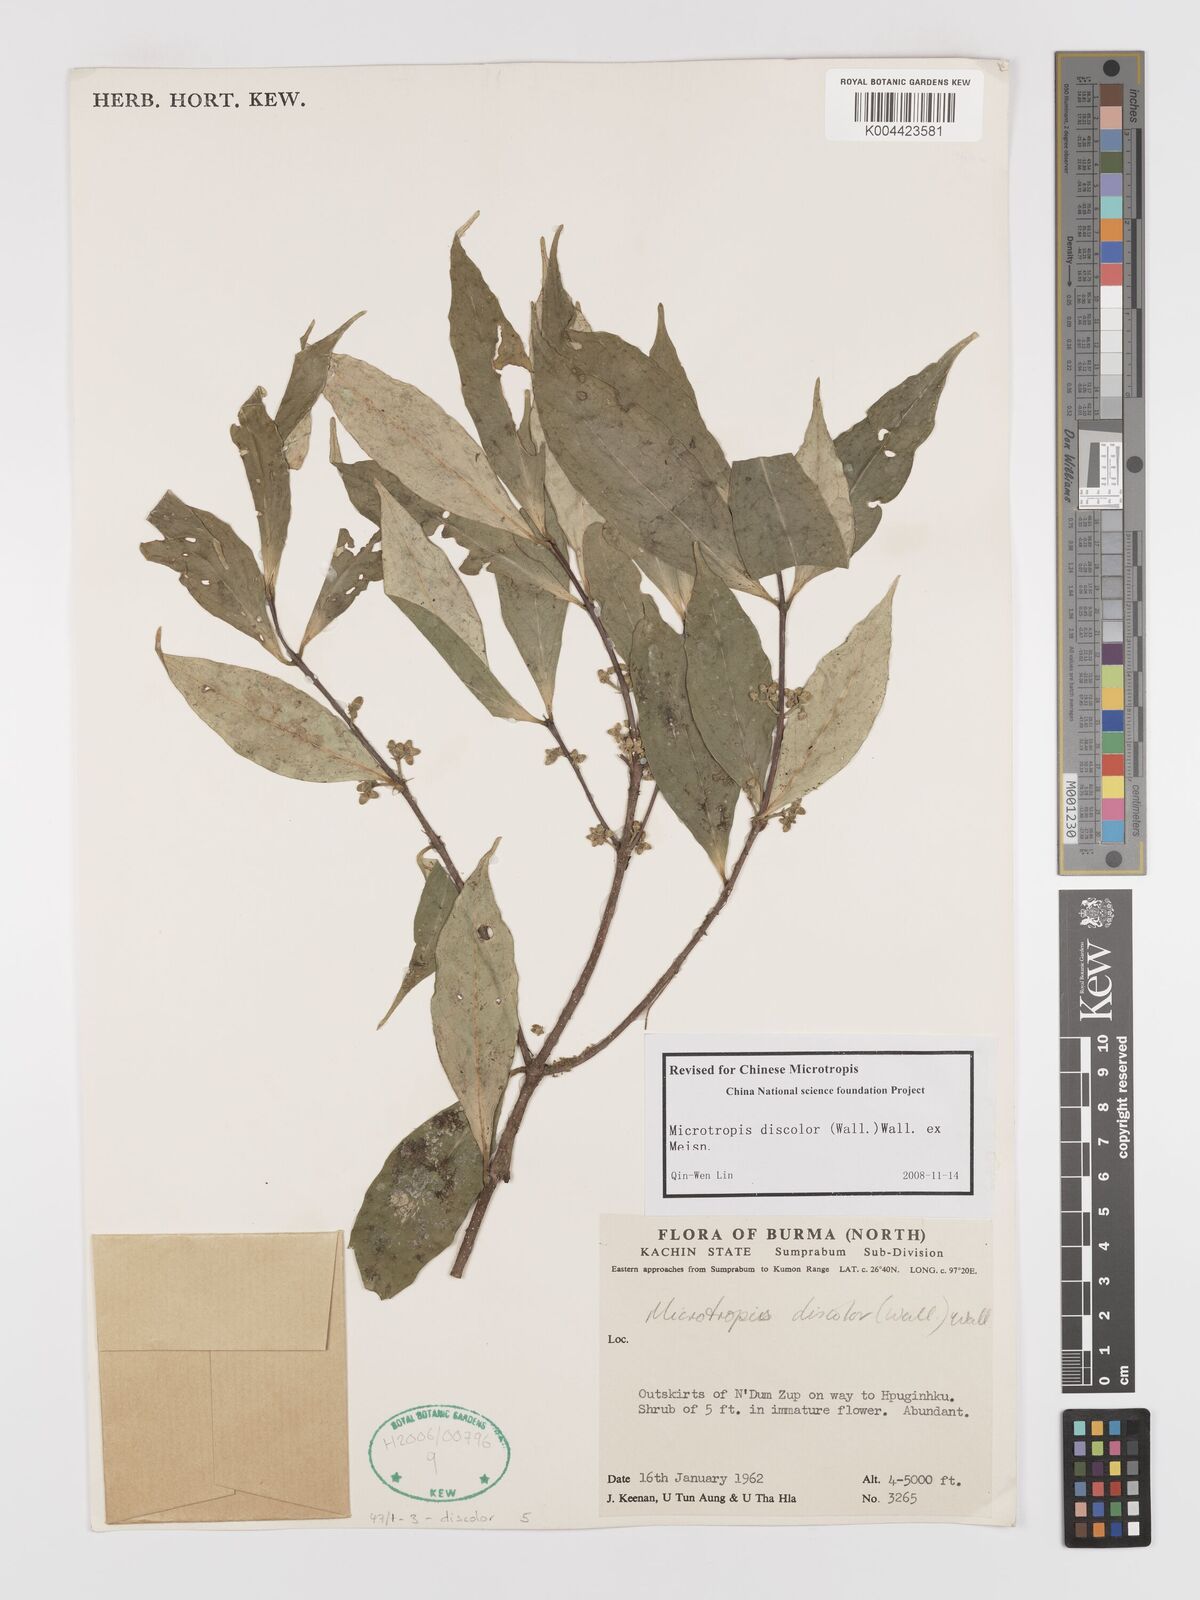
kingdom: Plantae
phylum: Tracheophyta
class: Magnoliopsida
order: Celastrales
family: Celastraceae
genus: Microtropis
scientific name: Microtropis discolor
